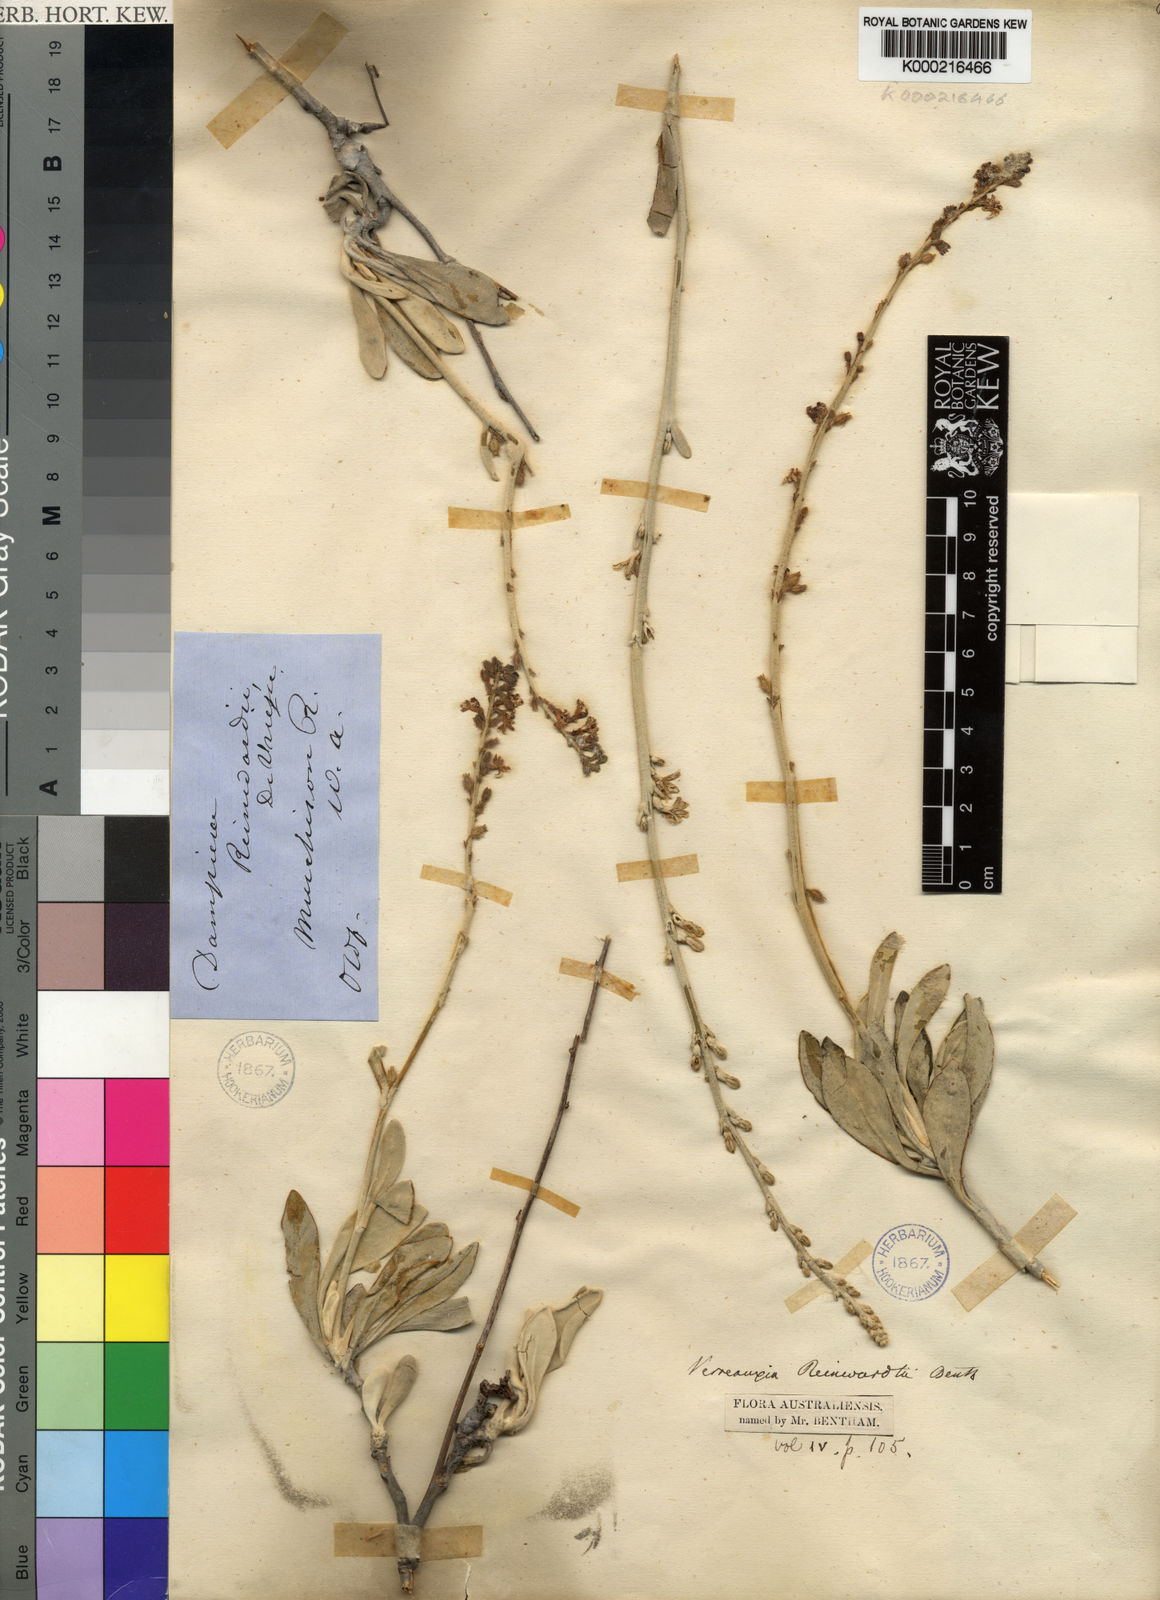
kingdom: Plantae
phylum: Tracheophyta
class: Magnoliopsida
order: Asterales
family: Goodeniaceae
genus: Goodenia
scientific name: Goodenia reinwardtii
